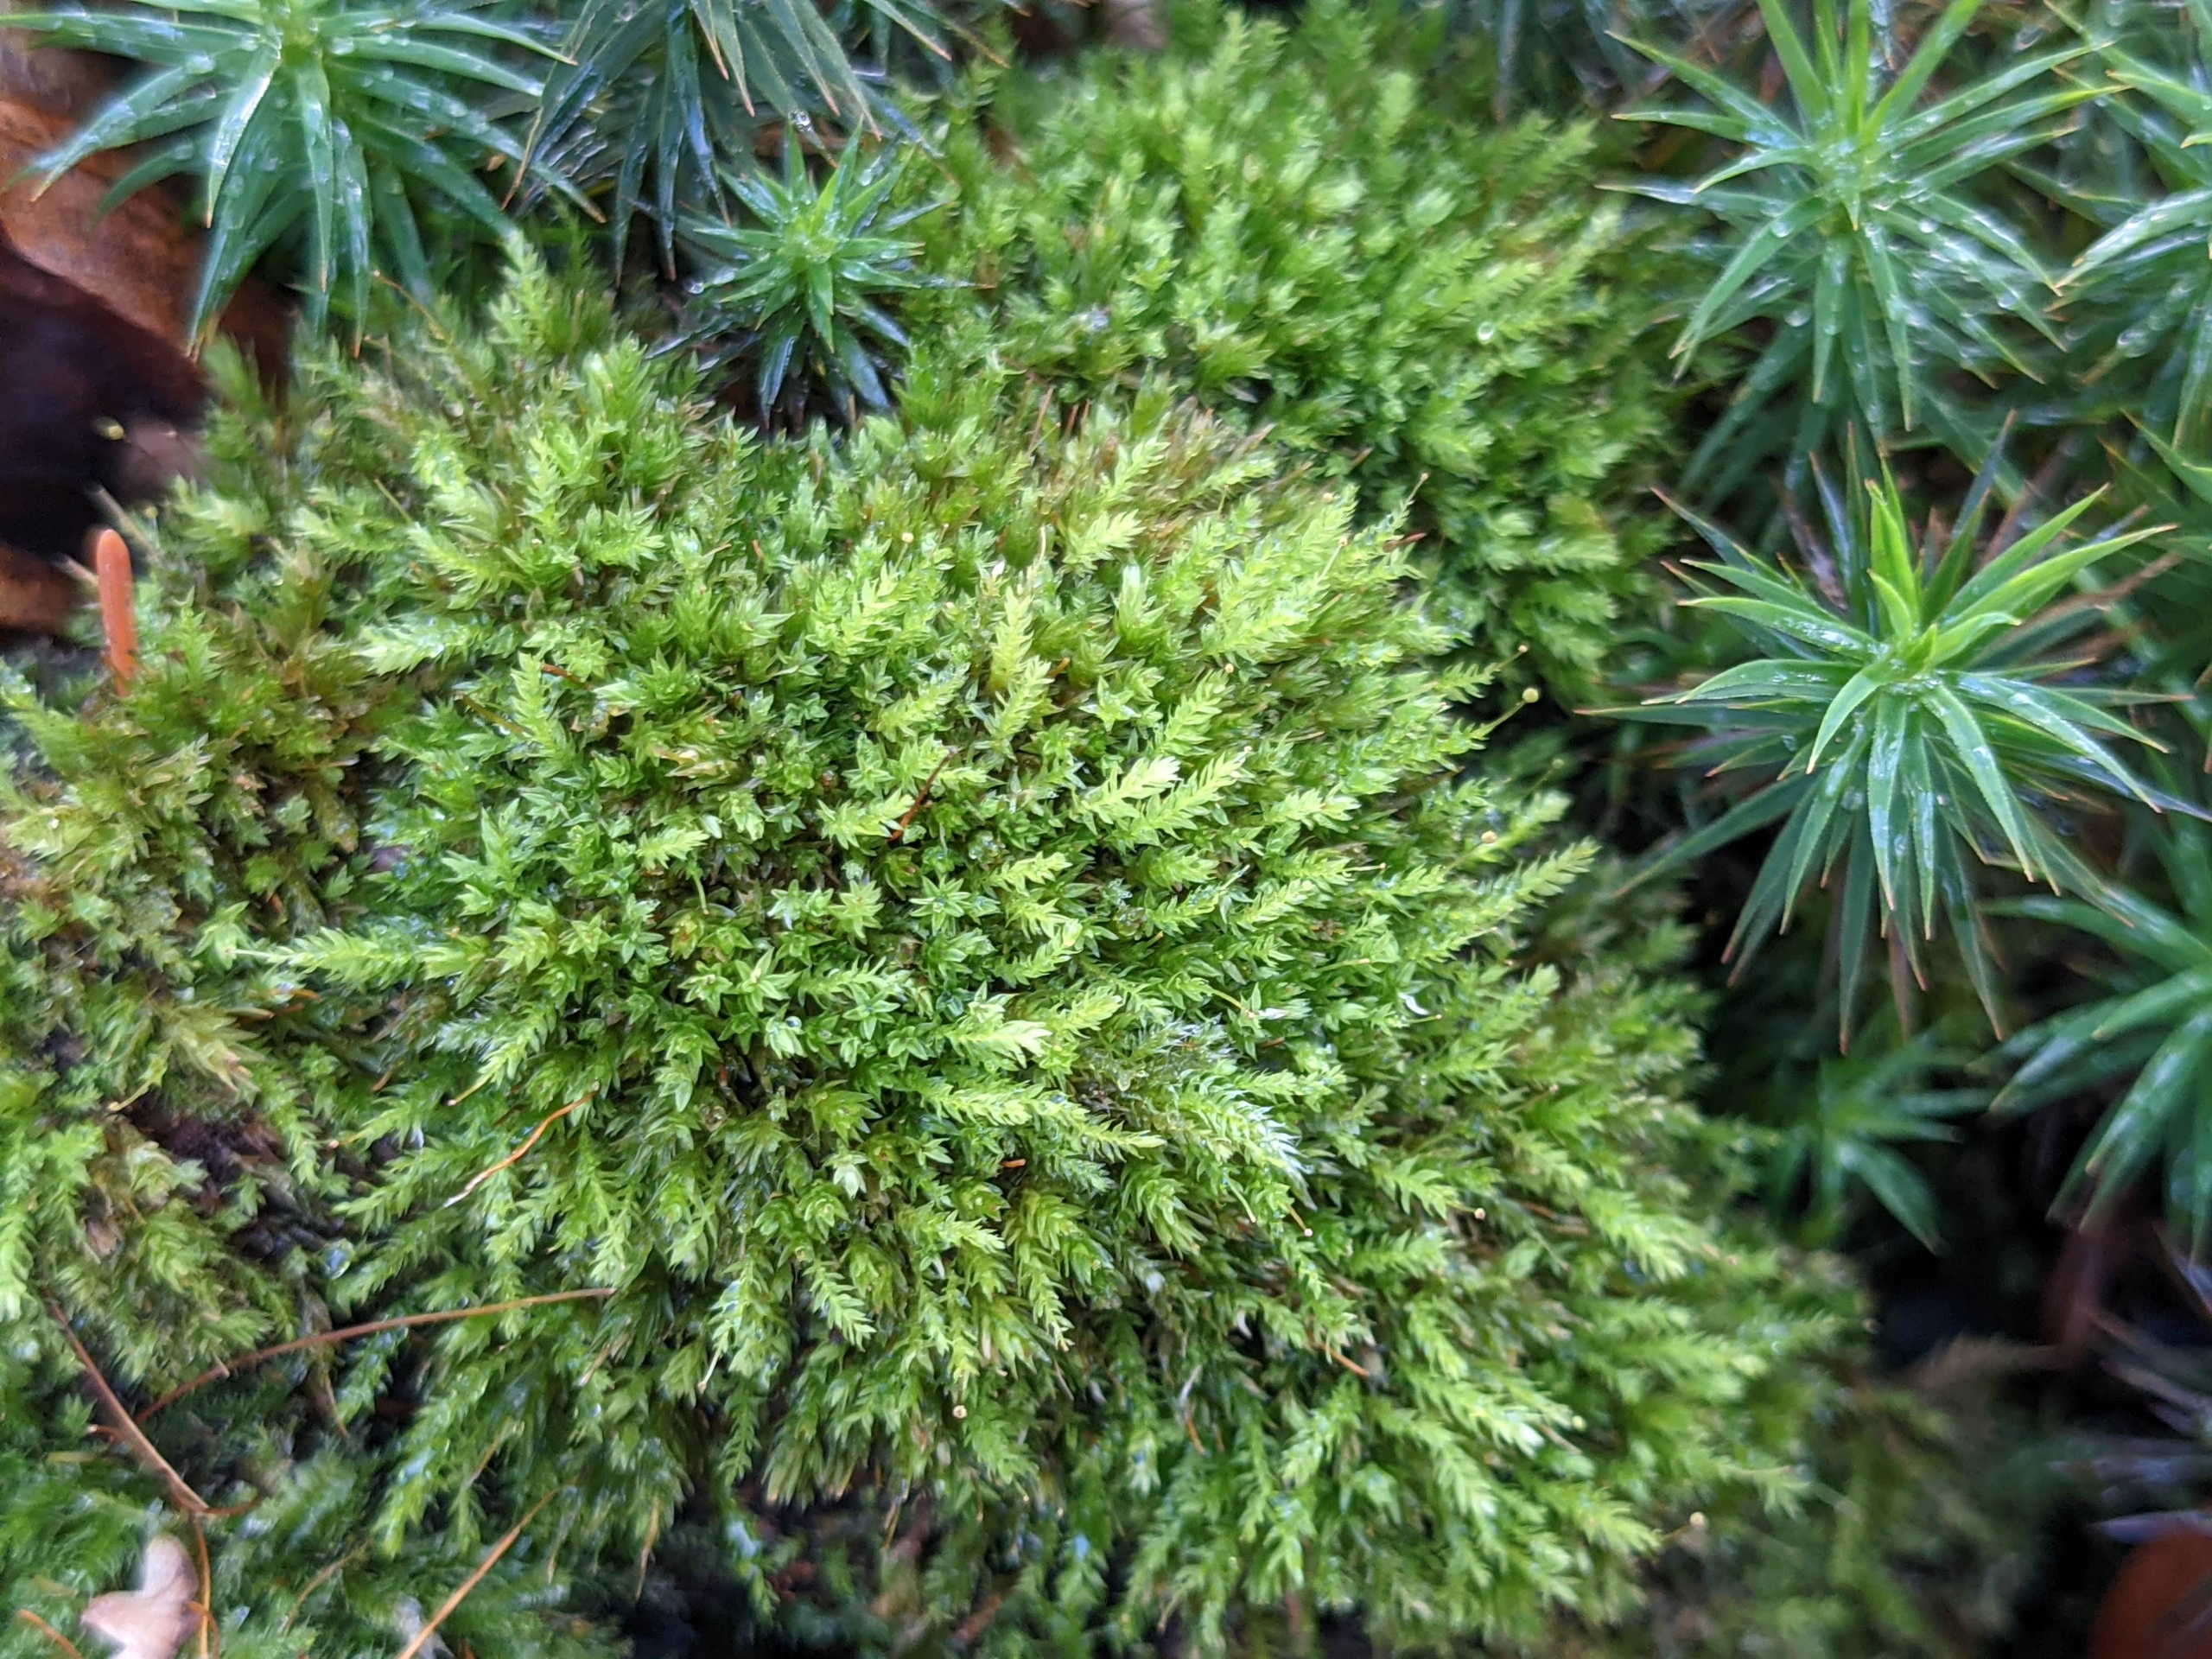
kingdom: Plantae
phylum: Bryophyta
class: Bryopsida
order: Aulacomniales
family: Aulacomniaceae
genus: Aulacomnium
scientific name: Aulacomnium androgynum
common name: Kugle-filtmos
